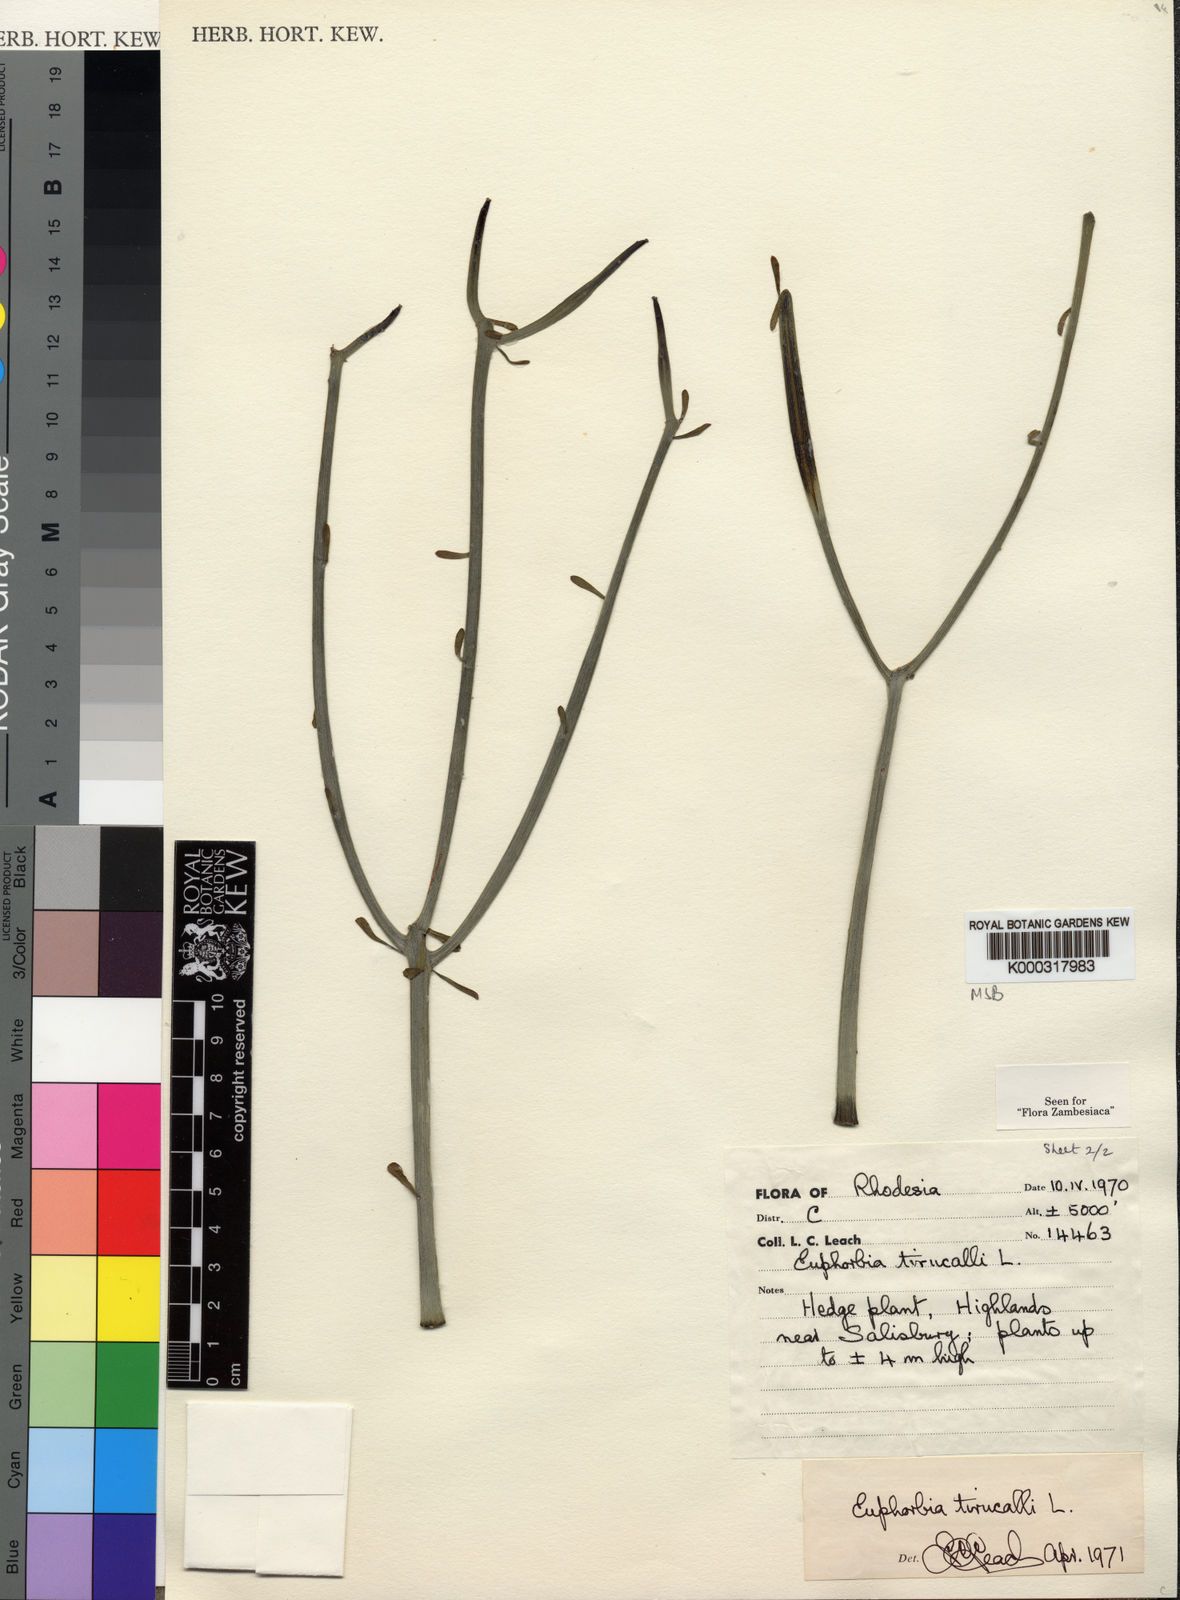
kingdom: Plantae
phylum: Tracheophyta
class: Magnoliopsida
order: Malpighiales
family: Euphorbiaceae
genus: Euphorbia
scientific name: Euphorbia tirucalli
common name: Indiantree spurge
